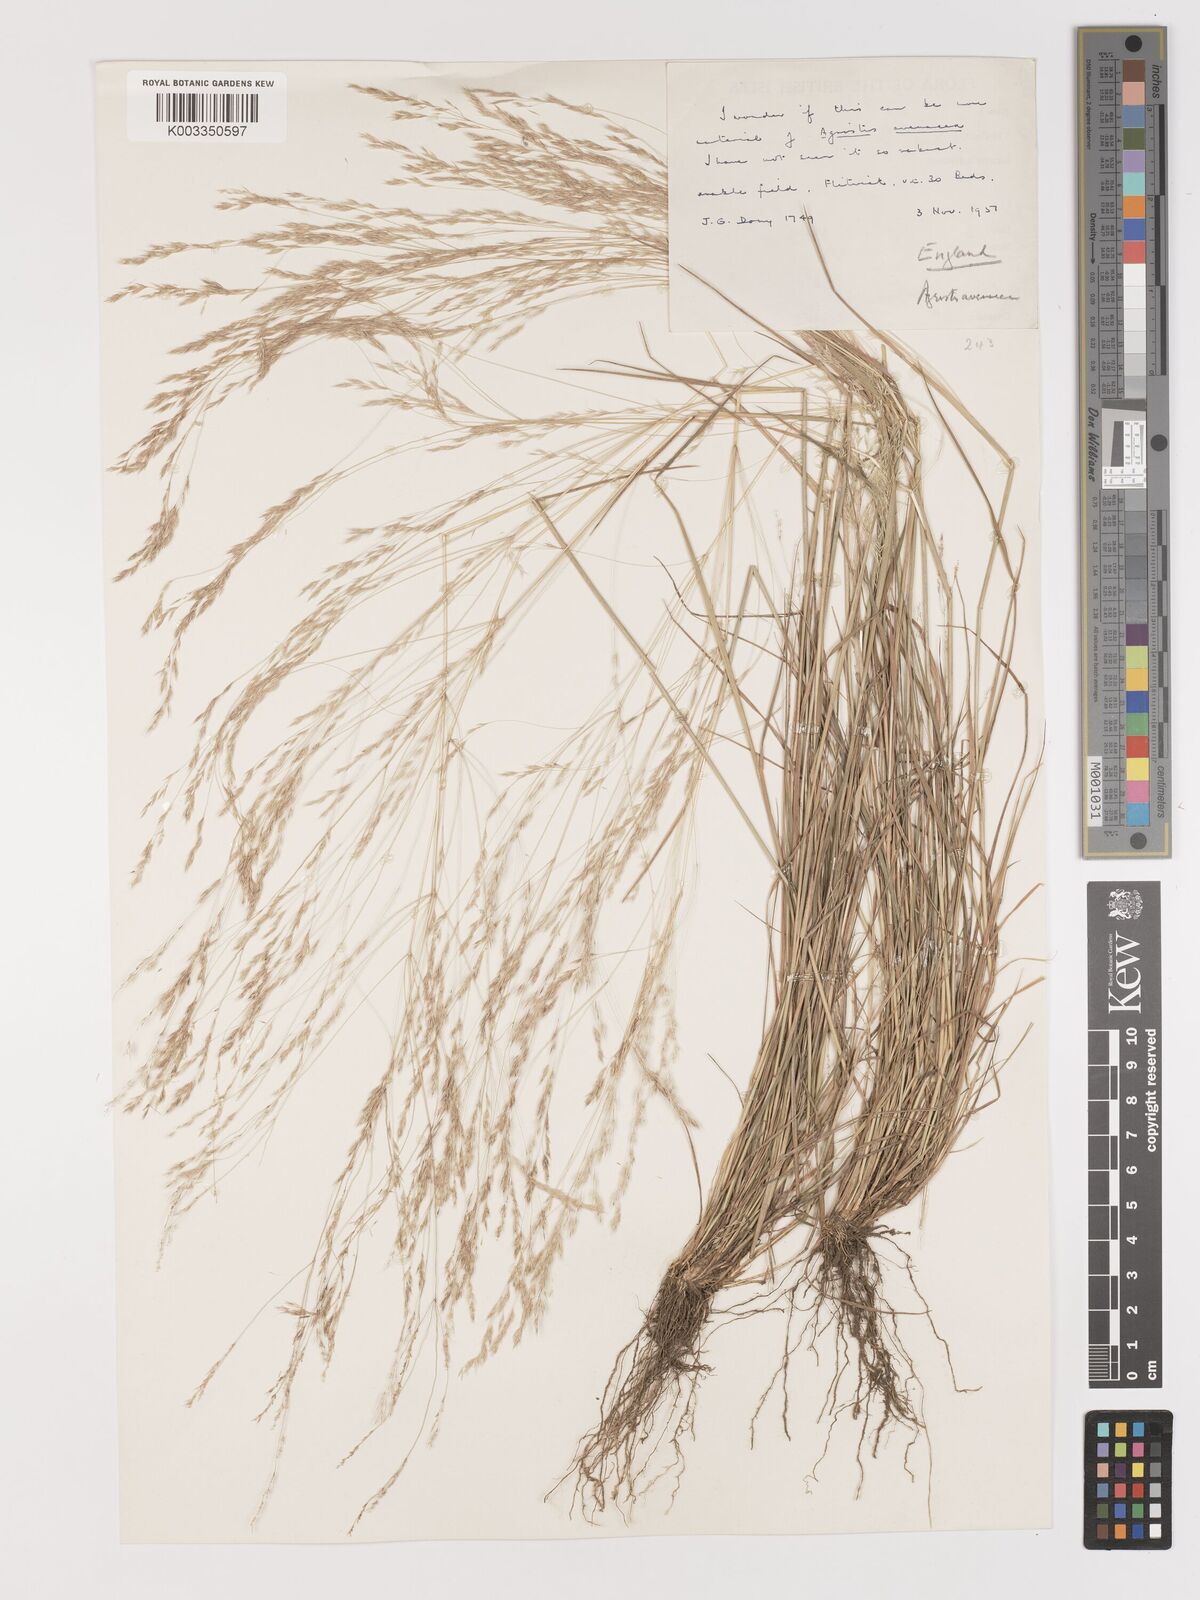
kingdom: Plantae
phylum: Tracheophyta
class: Liliopsida
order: Poales
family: Poaceae
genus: Lachnagrostis
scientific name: Lachnagrostis filiformis
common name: Bentgrass
